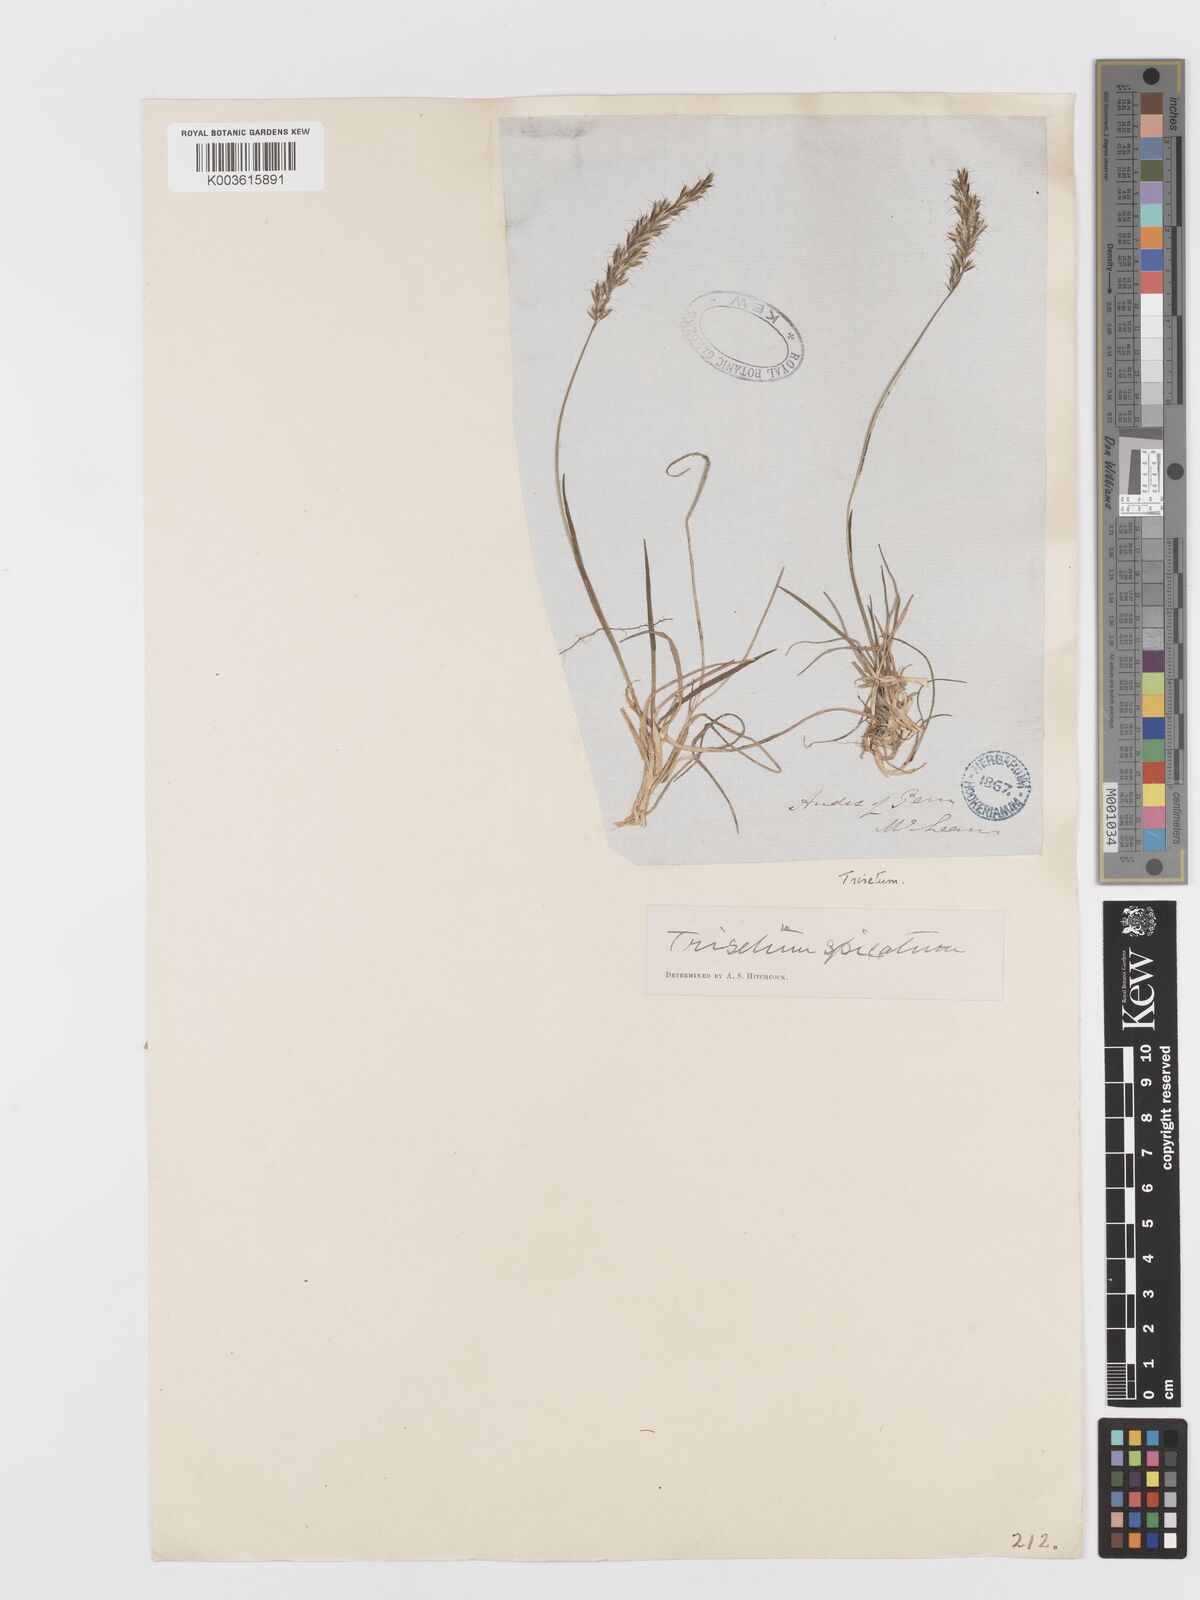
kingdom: Plantae
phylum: Tracheophyta
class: Liliopsida
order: Poales
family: Poaceae
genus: Koeleria
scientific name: Koeleria spicata
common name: Mountain trisetum
